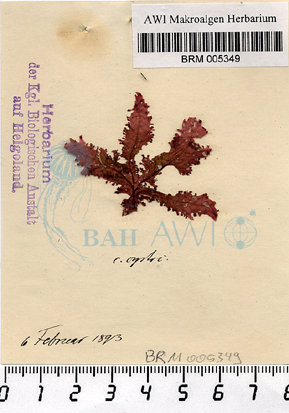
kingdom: Plantae
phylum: Rhodophyta
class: Florideophyceae
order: Ceramiales
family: Delesseriaceae
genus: Phycodrys
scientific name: Phycodrys rubens
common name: Sea oak
